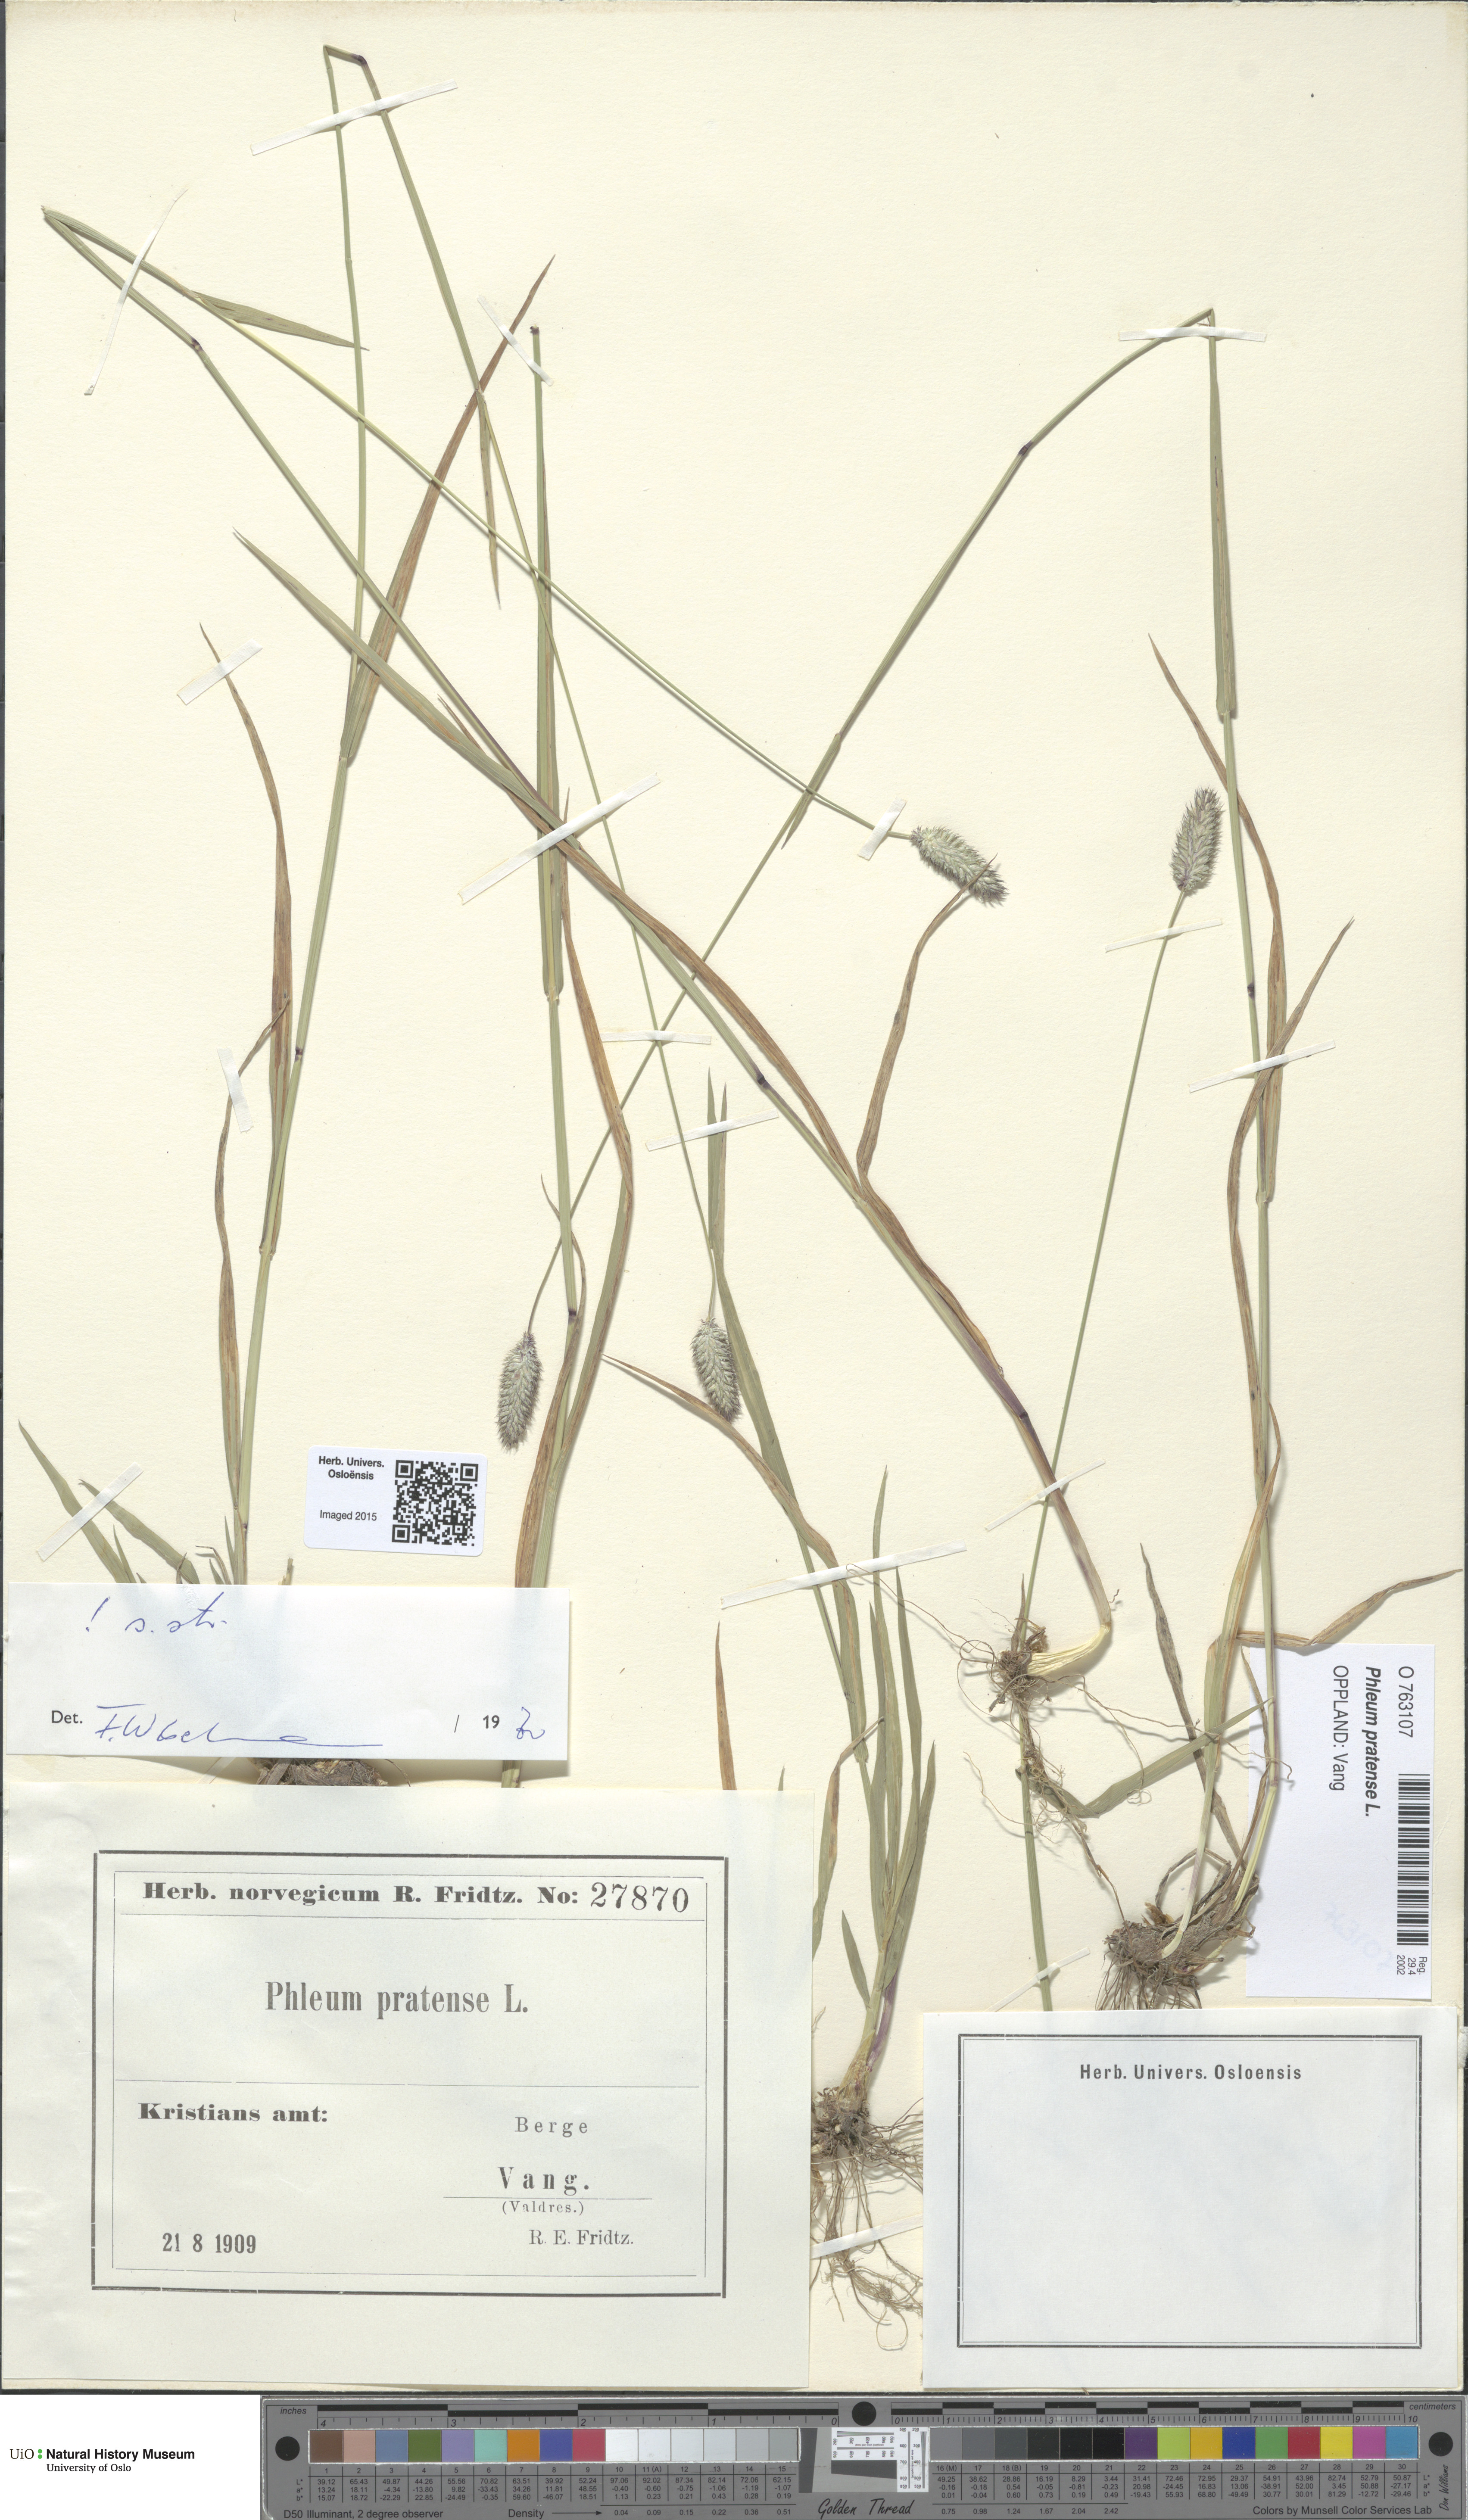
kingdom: Plantae
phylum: Tracheophyta
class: Liliopsida
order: Poales
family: Poaceae
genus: Phleum
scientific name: Phleum pratense
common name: Timothy grass
